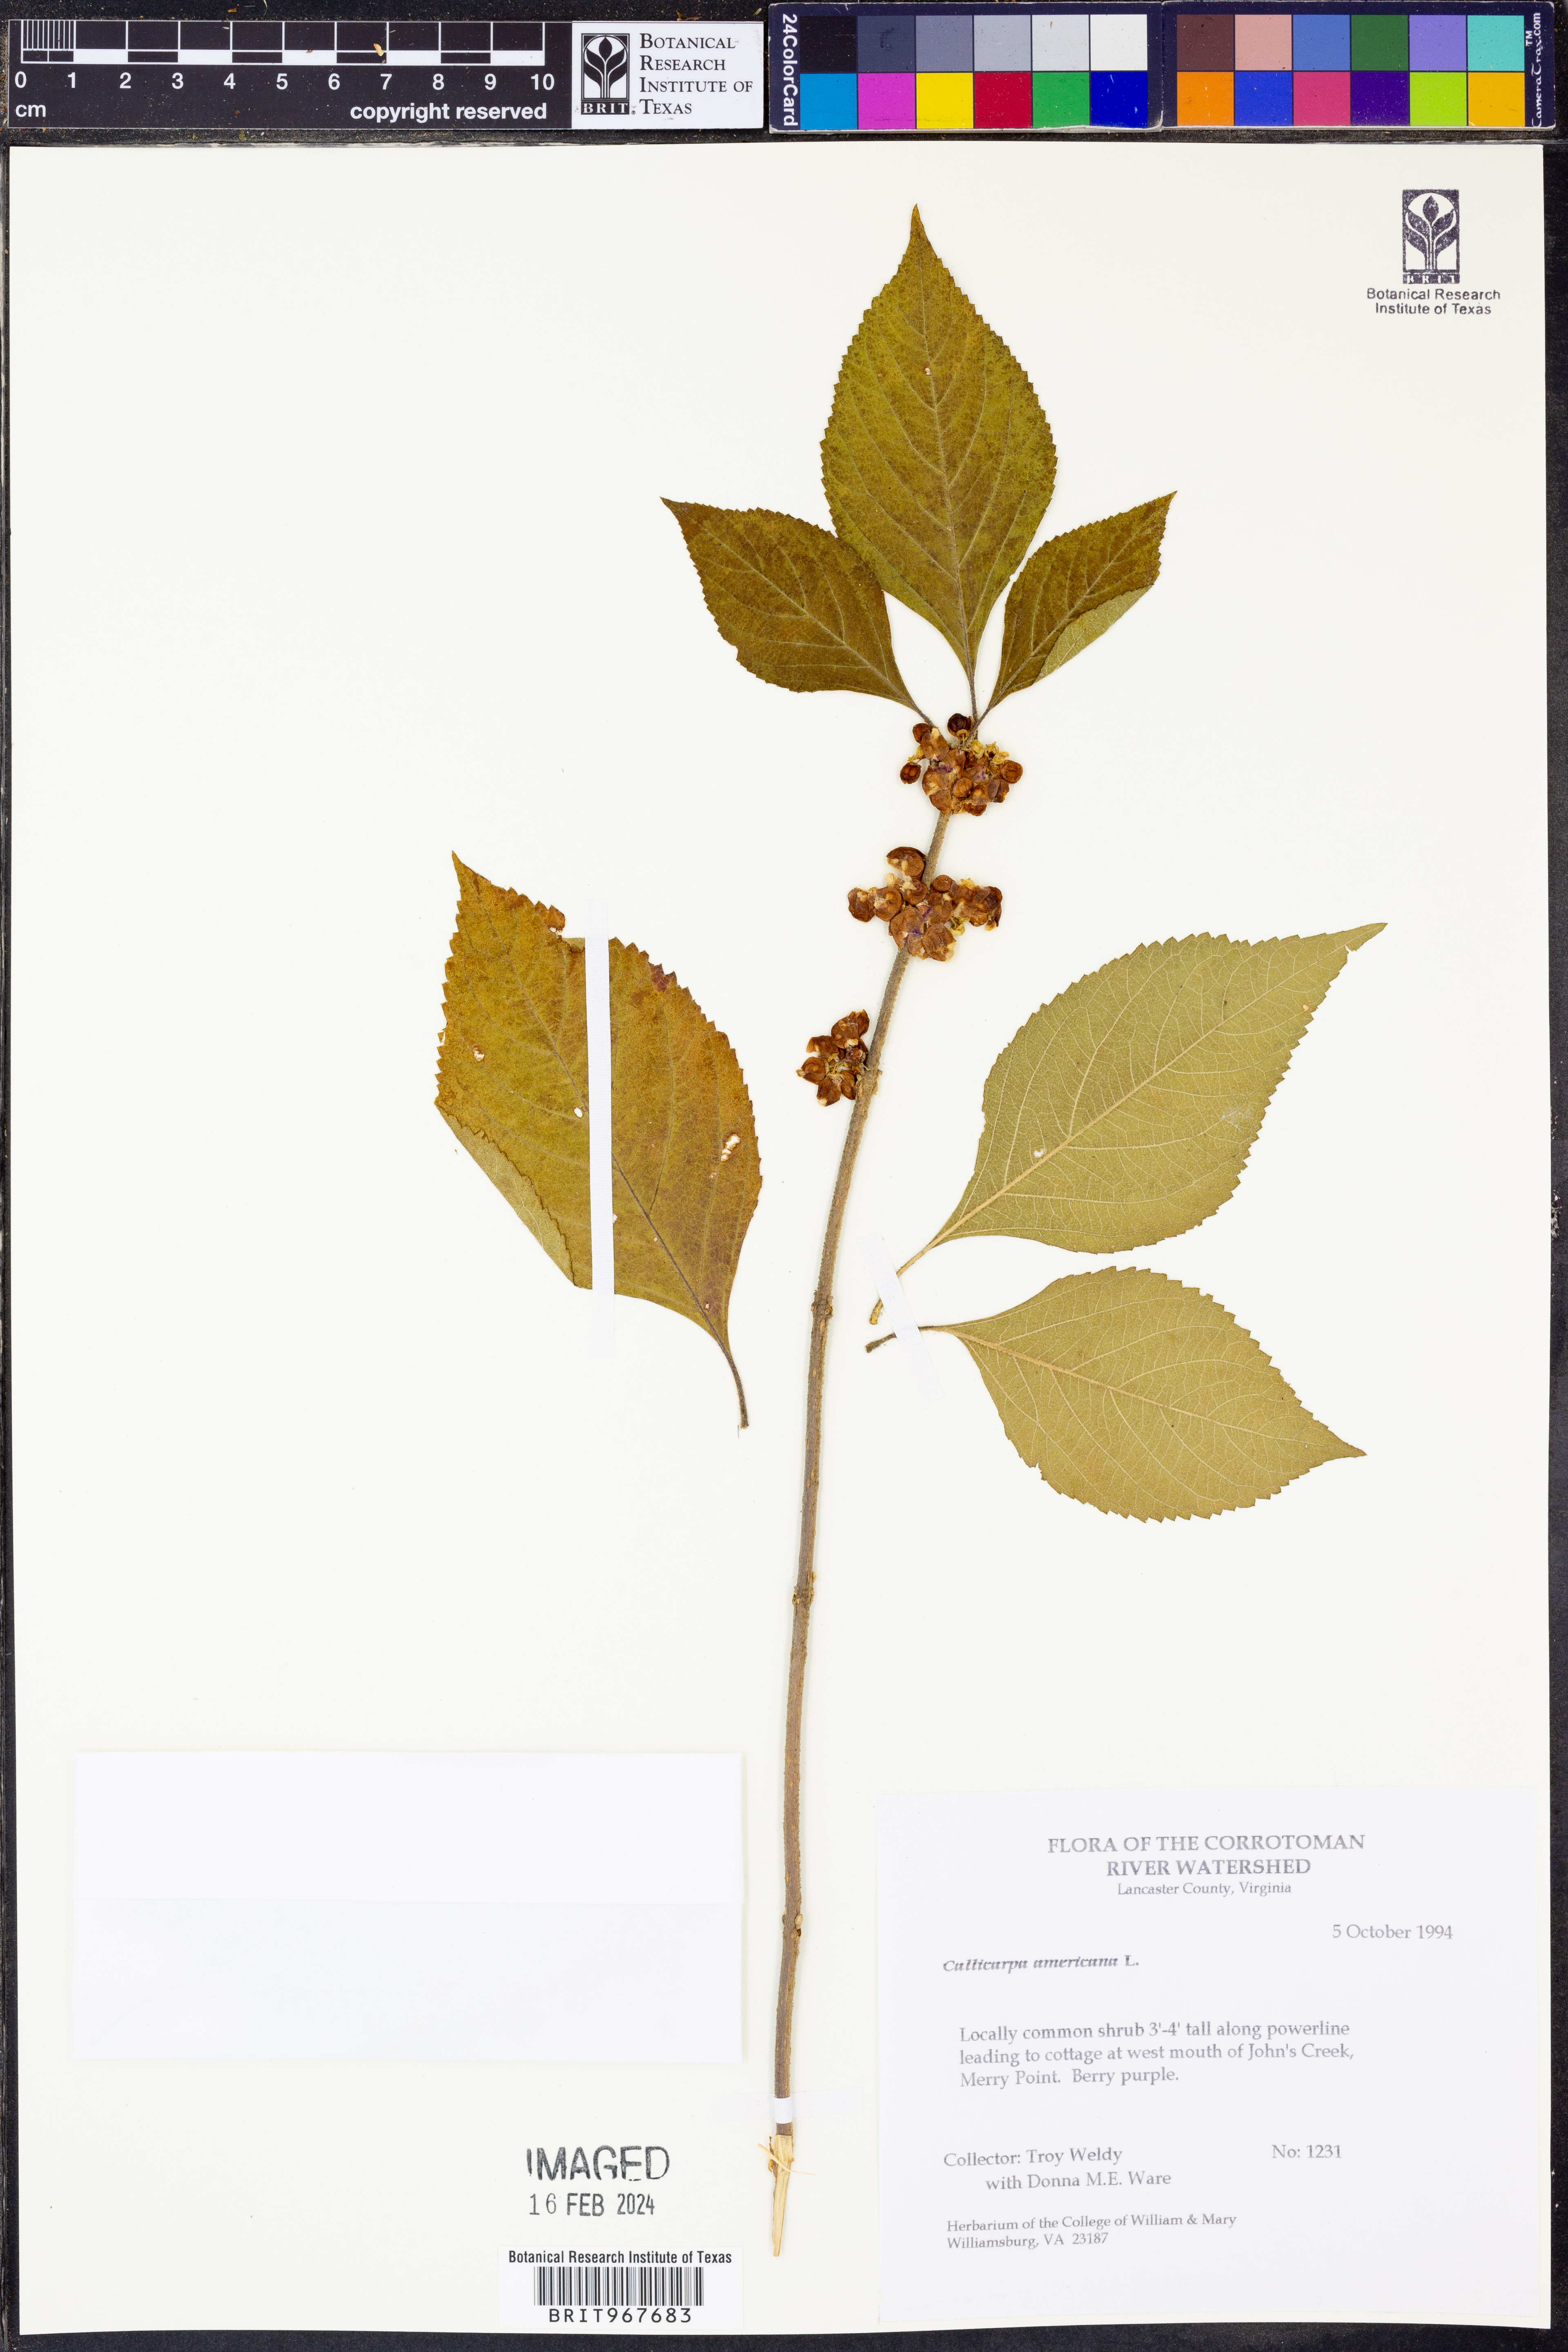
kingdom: Plantae
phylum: Tracheophyta
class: Magnoliopsida
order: Lamiales
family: Lamiaceae
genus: Callicarpa
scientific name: Callicarpa americana
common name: American beautyberry
